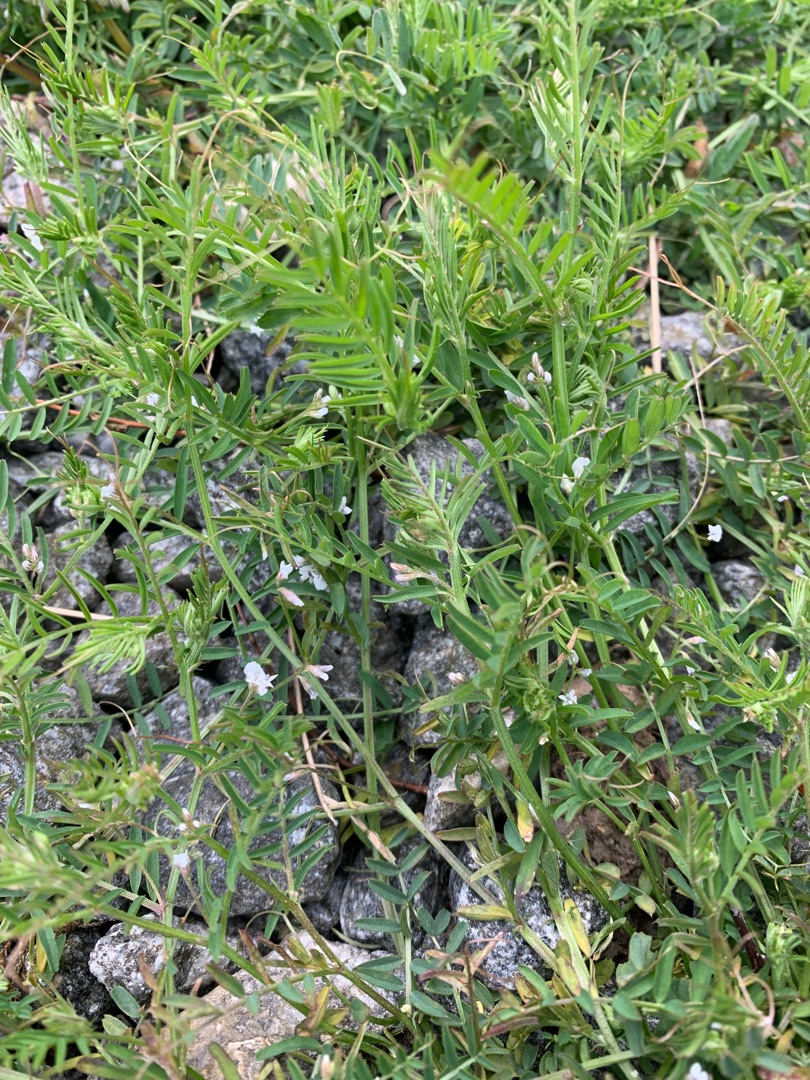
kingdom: Plantae
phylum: Tracheophyta
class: Magnoliopsida
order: Fabales
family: Fabaceae
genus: Vicia
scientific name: Vicia hirsuta
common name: Tofrøet vikke
